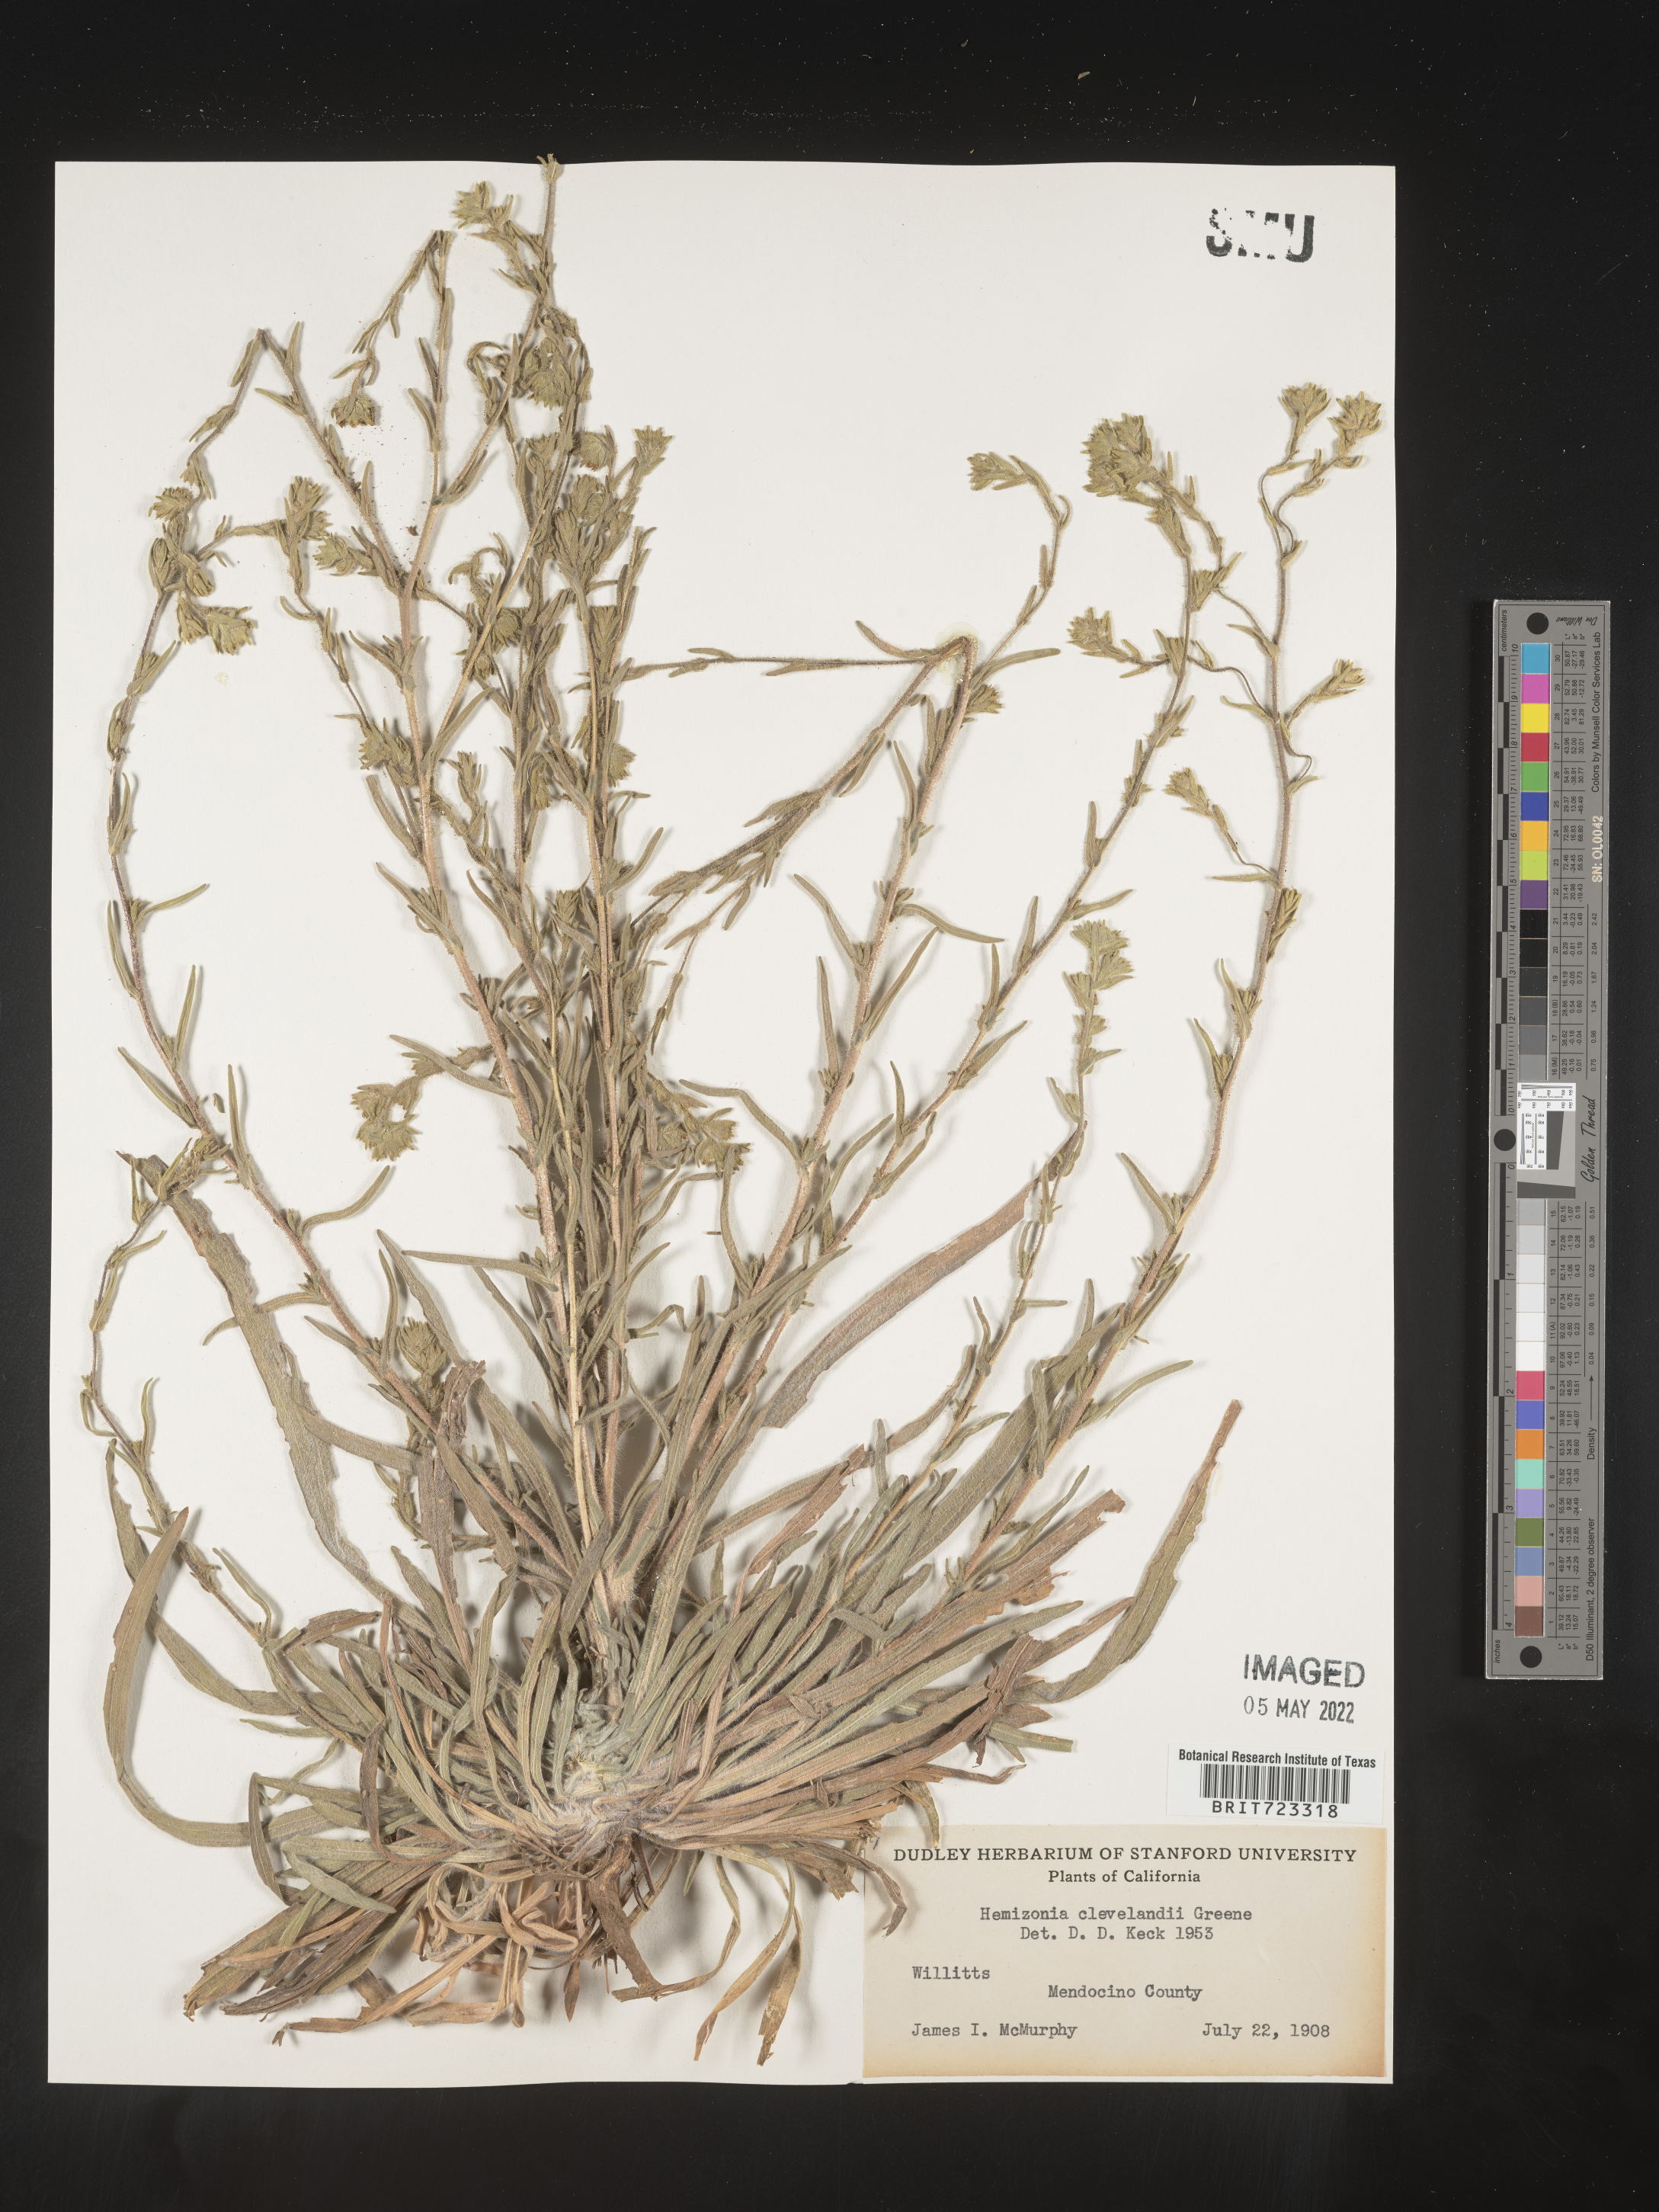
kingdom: Plantae
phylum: Tracheophyta
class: Magnoliopsida
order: Asterales
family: Asteraceae
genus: Hemizonia
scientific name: Hemizonia
